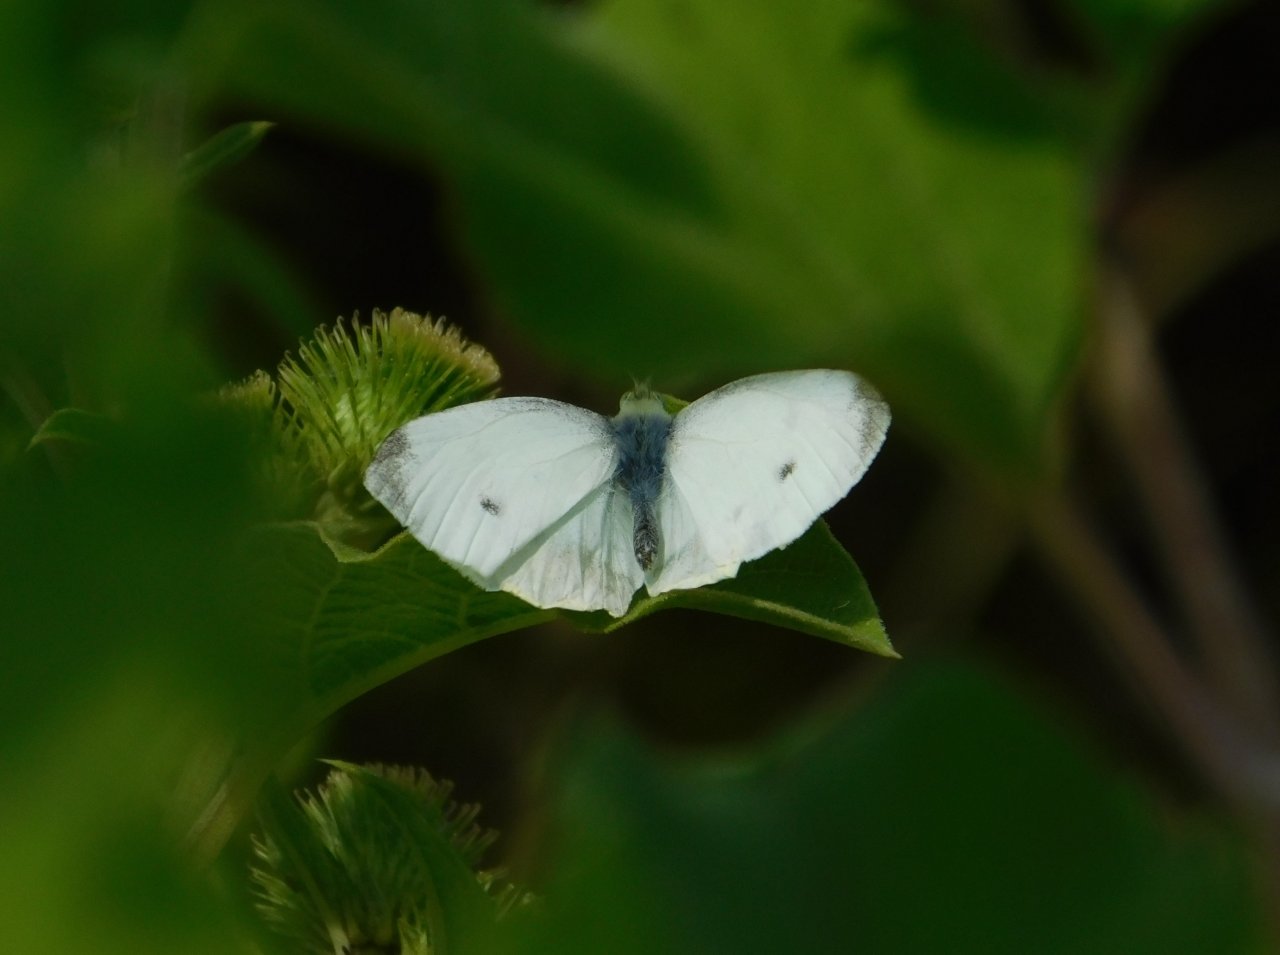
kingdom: Animalia
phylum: Arthropoda
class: Insecta
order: Lepidoptera
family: Pieridae
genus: Pieris
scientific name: Pieris rapae
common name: Cabbage White
